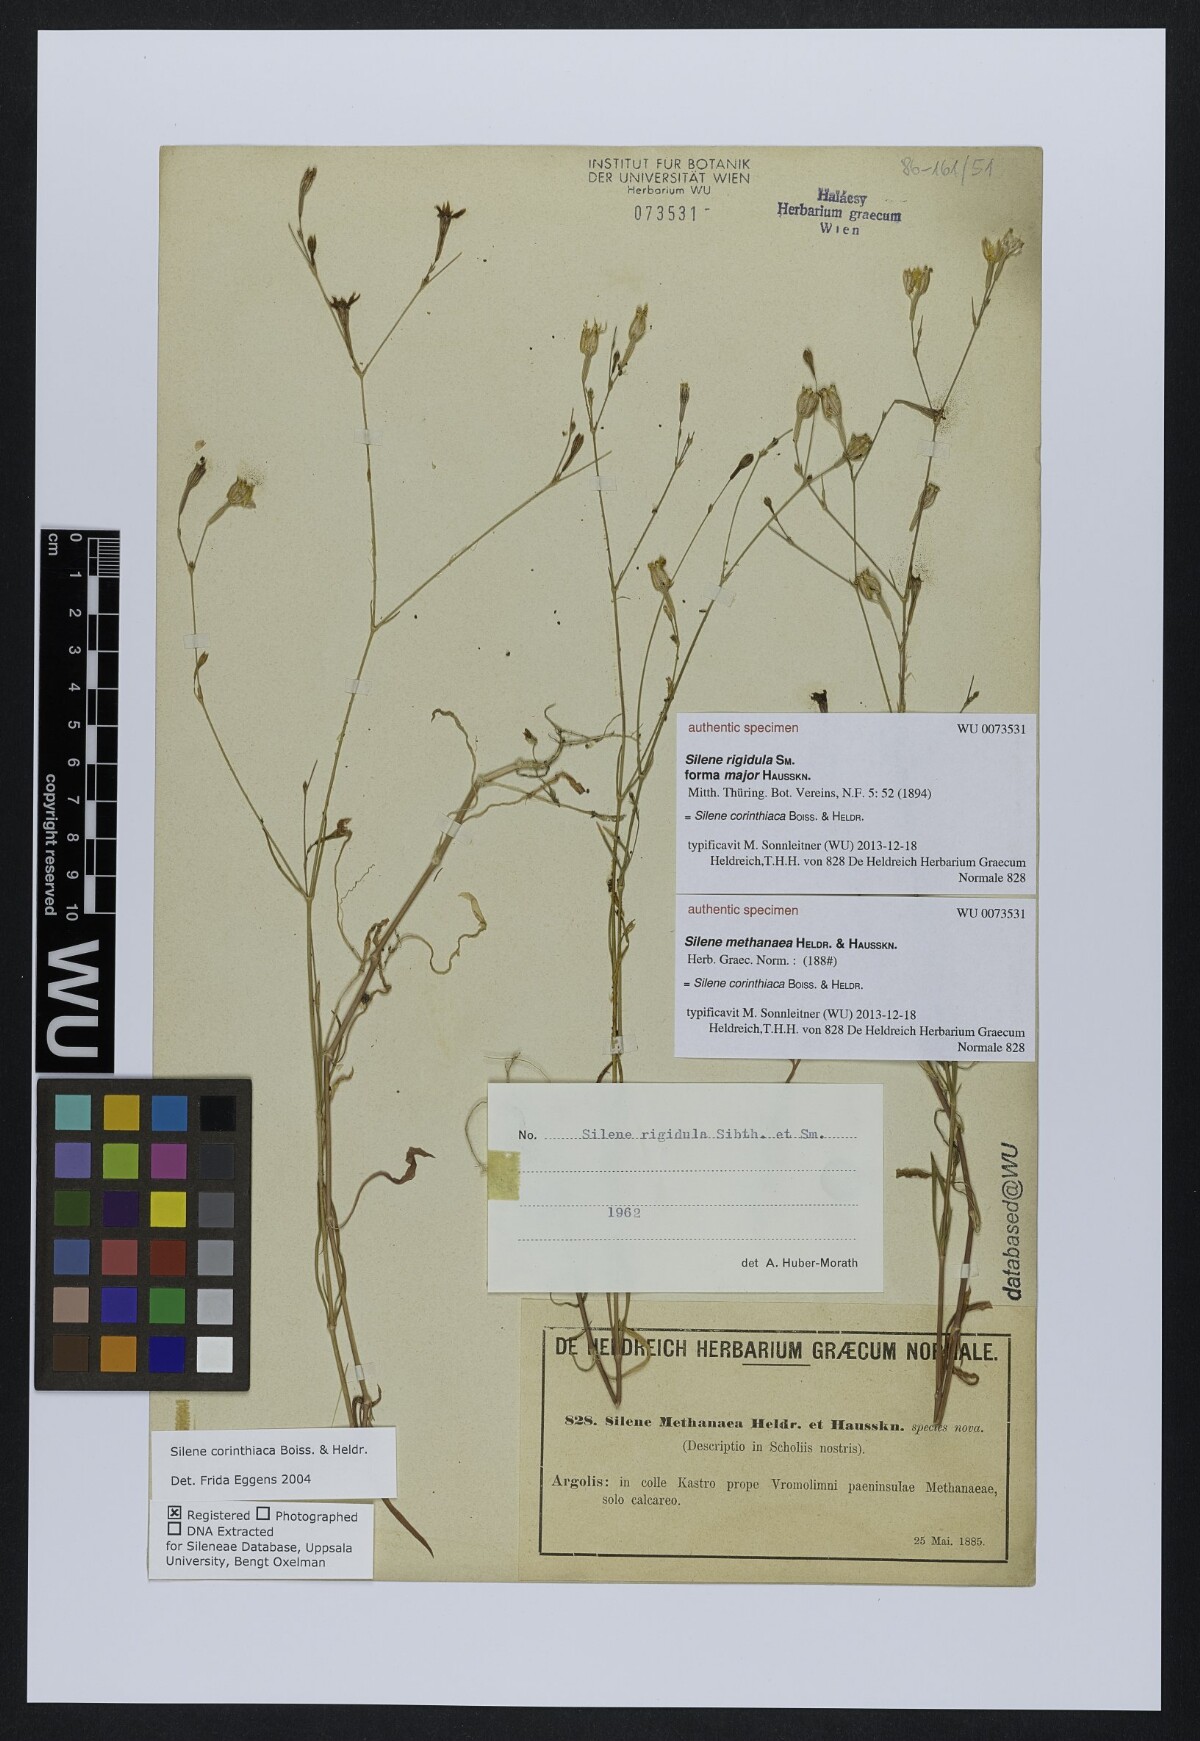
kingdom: Plantae
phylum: Tracheophyta
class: Magnoliopsida
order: Caryophyllales
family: Caryophyllaceae
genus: Silene
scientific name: Silene
